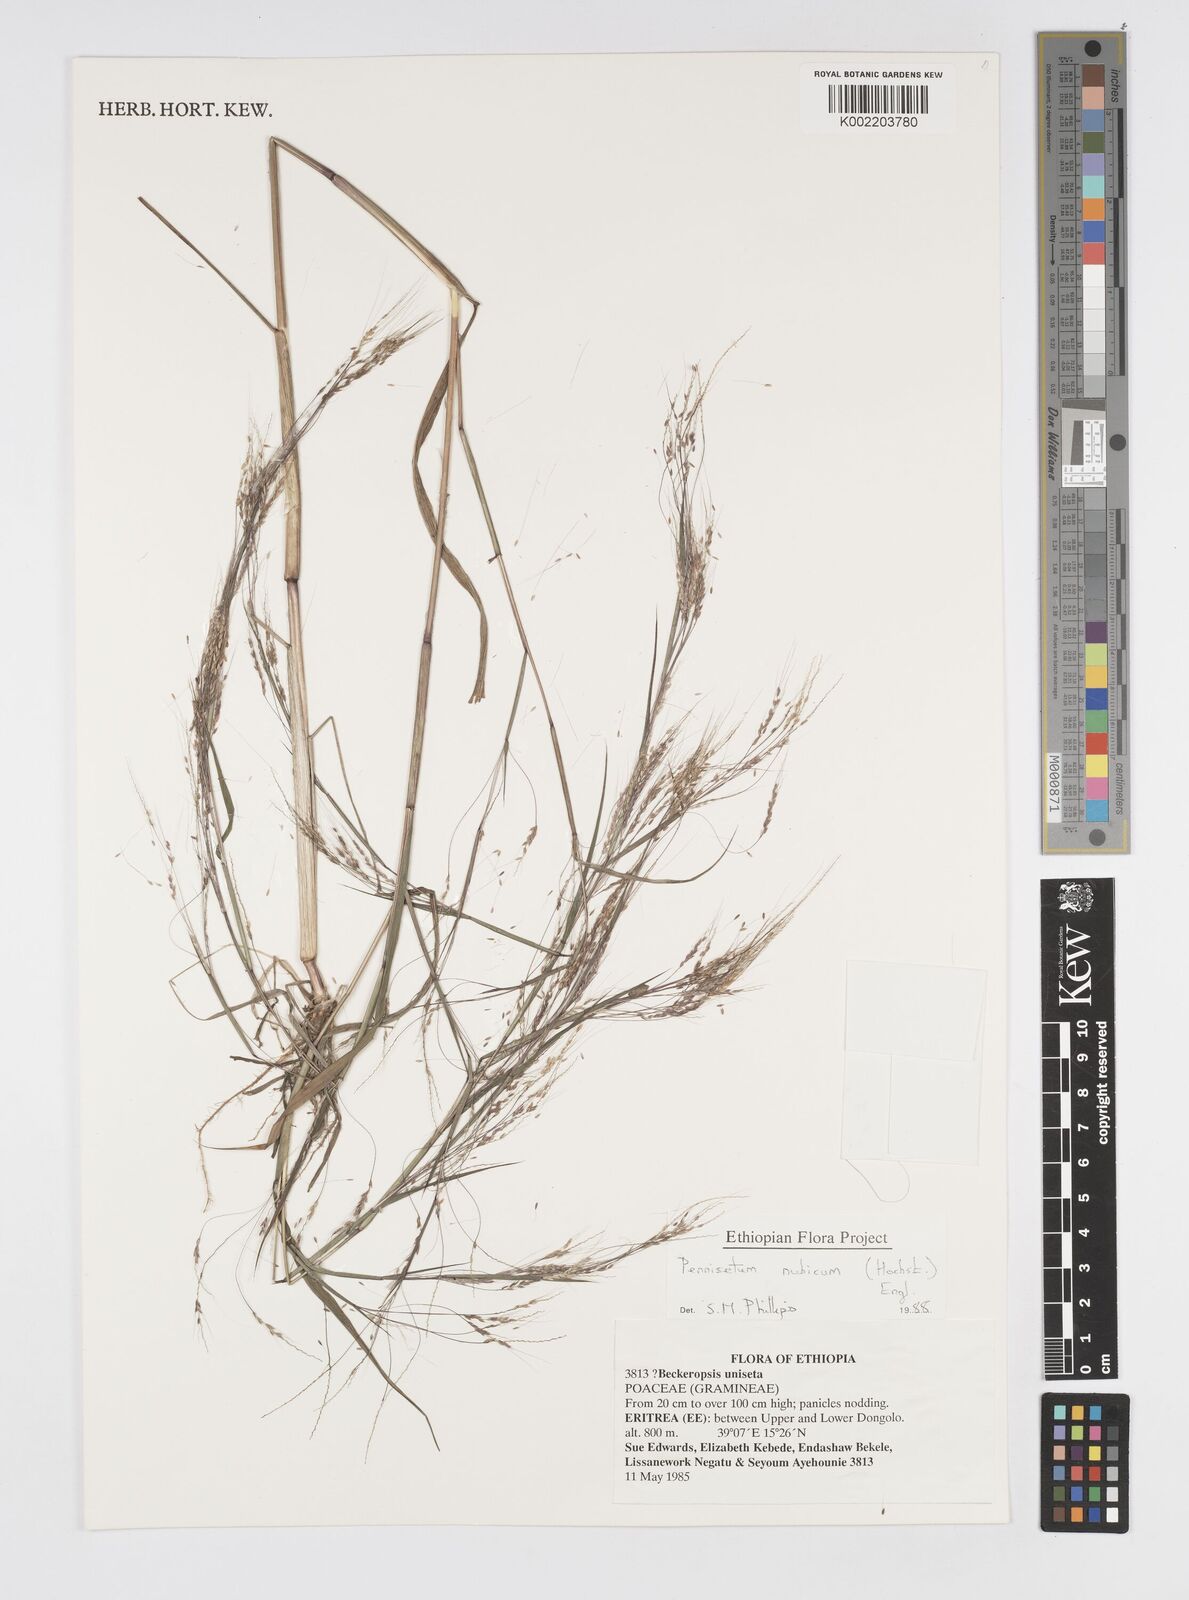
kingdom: Plantae
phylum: Tracheophyta
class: Liliopsida
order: Poales
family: Poaceae
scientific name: Poaceae
